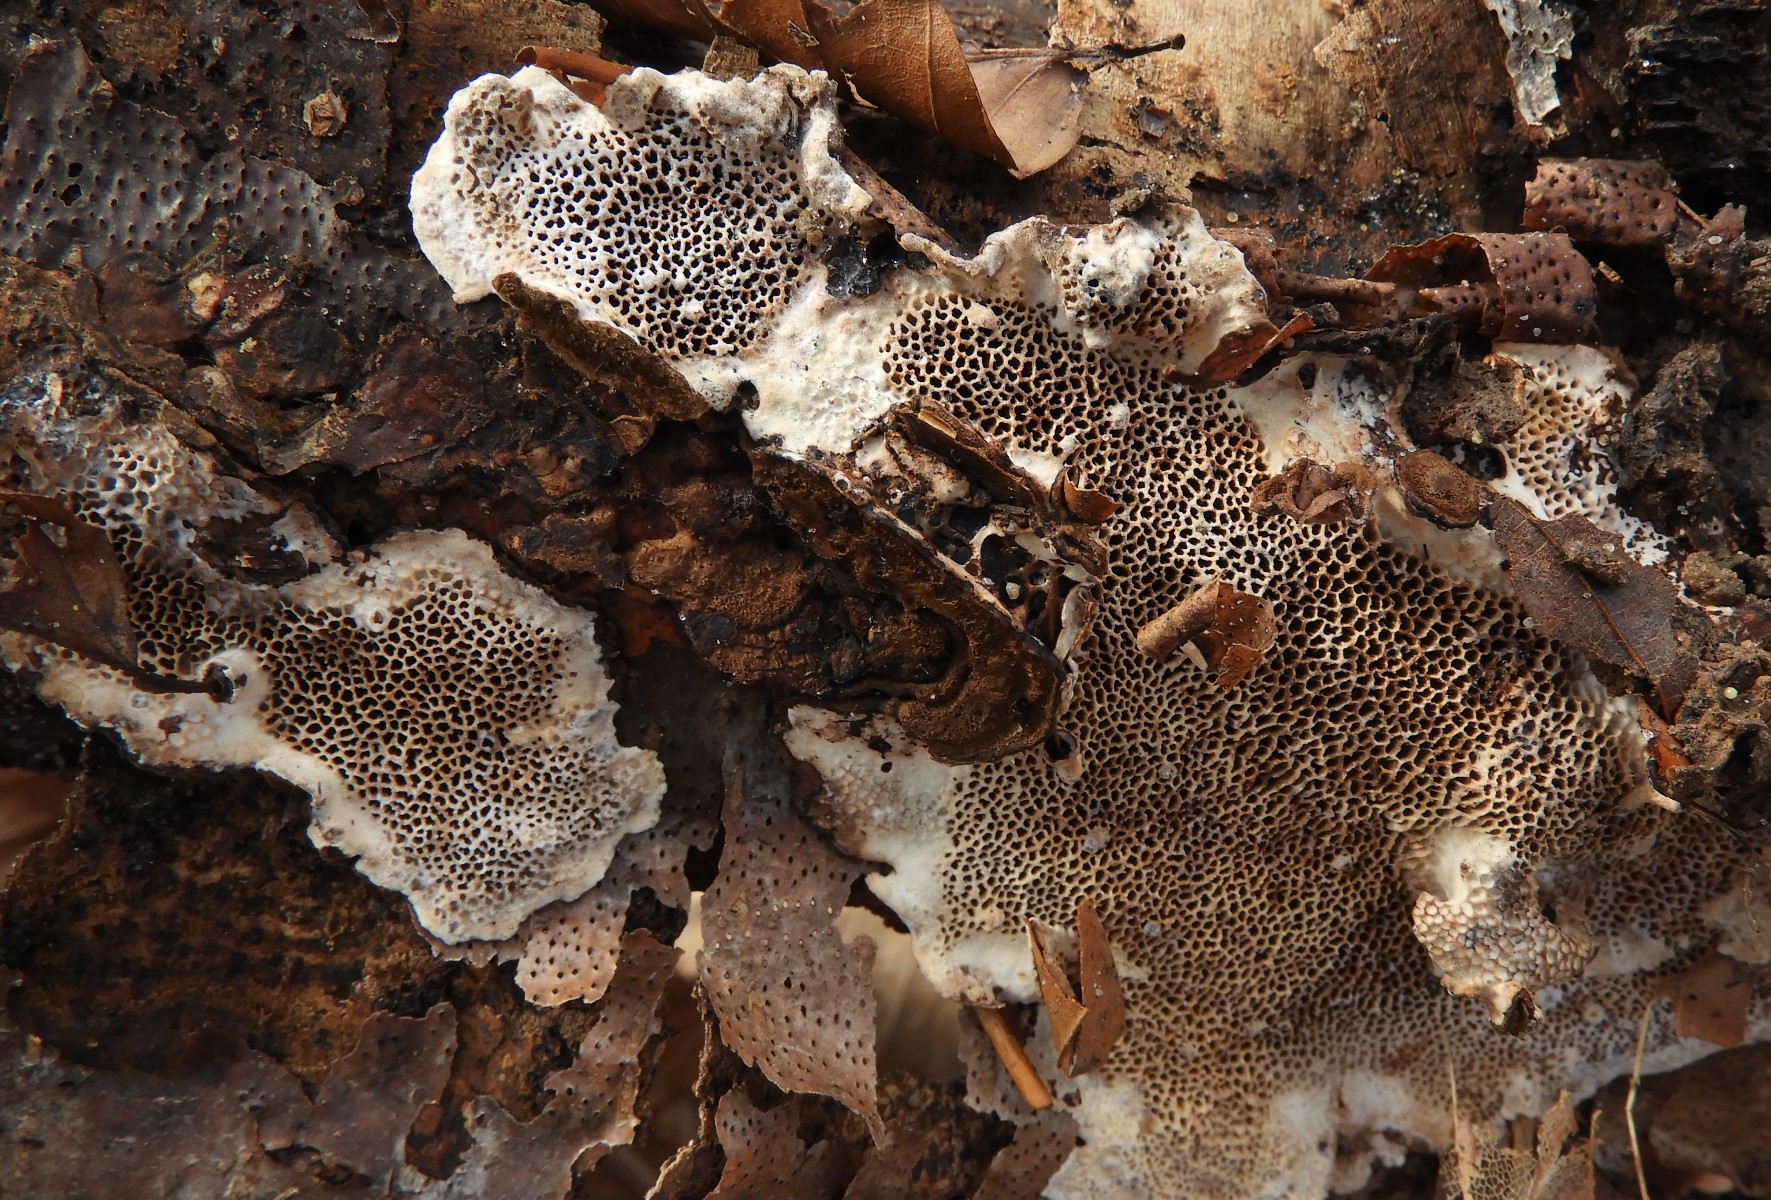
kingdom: Fungi
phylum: Basidiomycota
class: Agaricomycetes
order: Polyporales
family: Polyporaceae
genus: Podofomes
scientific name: Podofomes mollis
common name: blød begporesvamp
